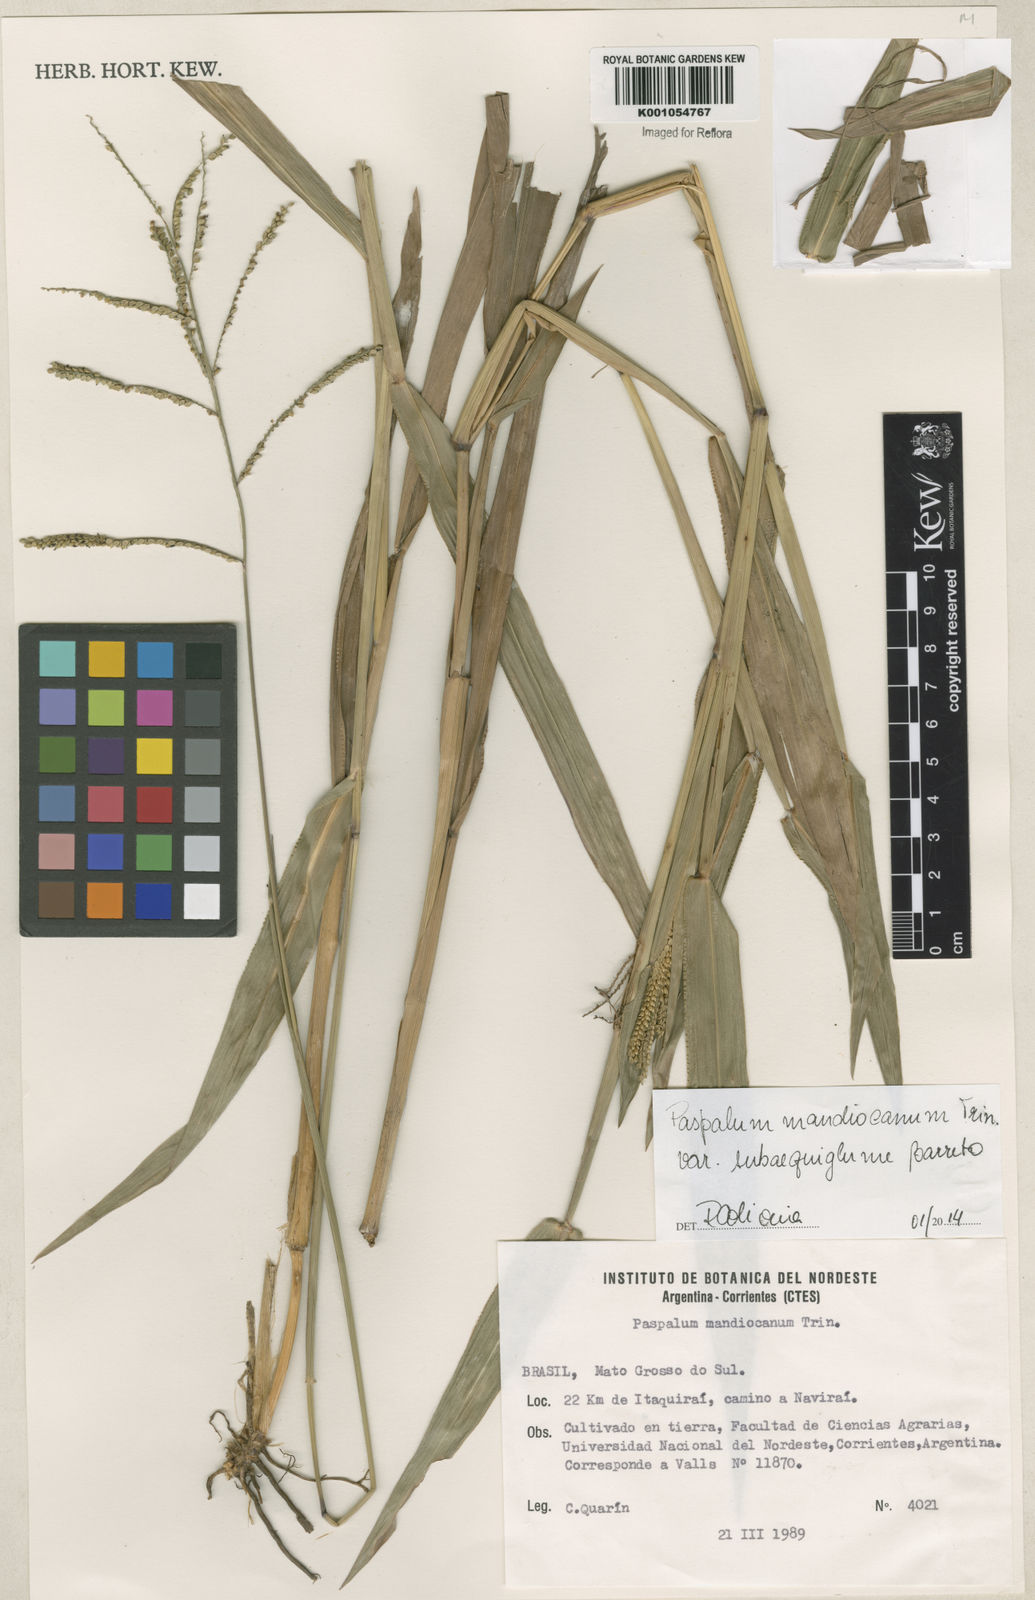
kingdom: Plantae
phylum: Tracheophyta
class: Liliopsida
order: Poales
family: Poaceae
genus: Paspalum
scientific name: Paspalum mandiocanum
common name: Paspalum
